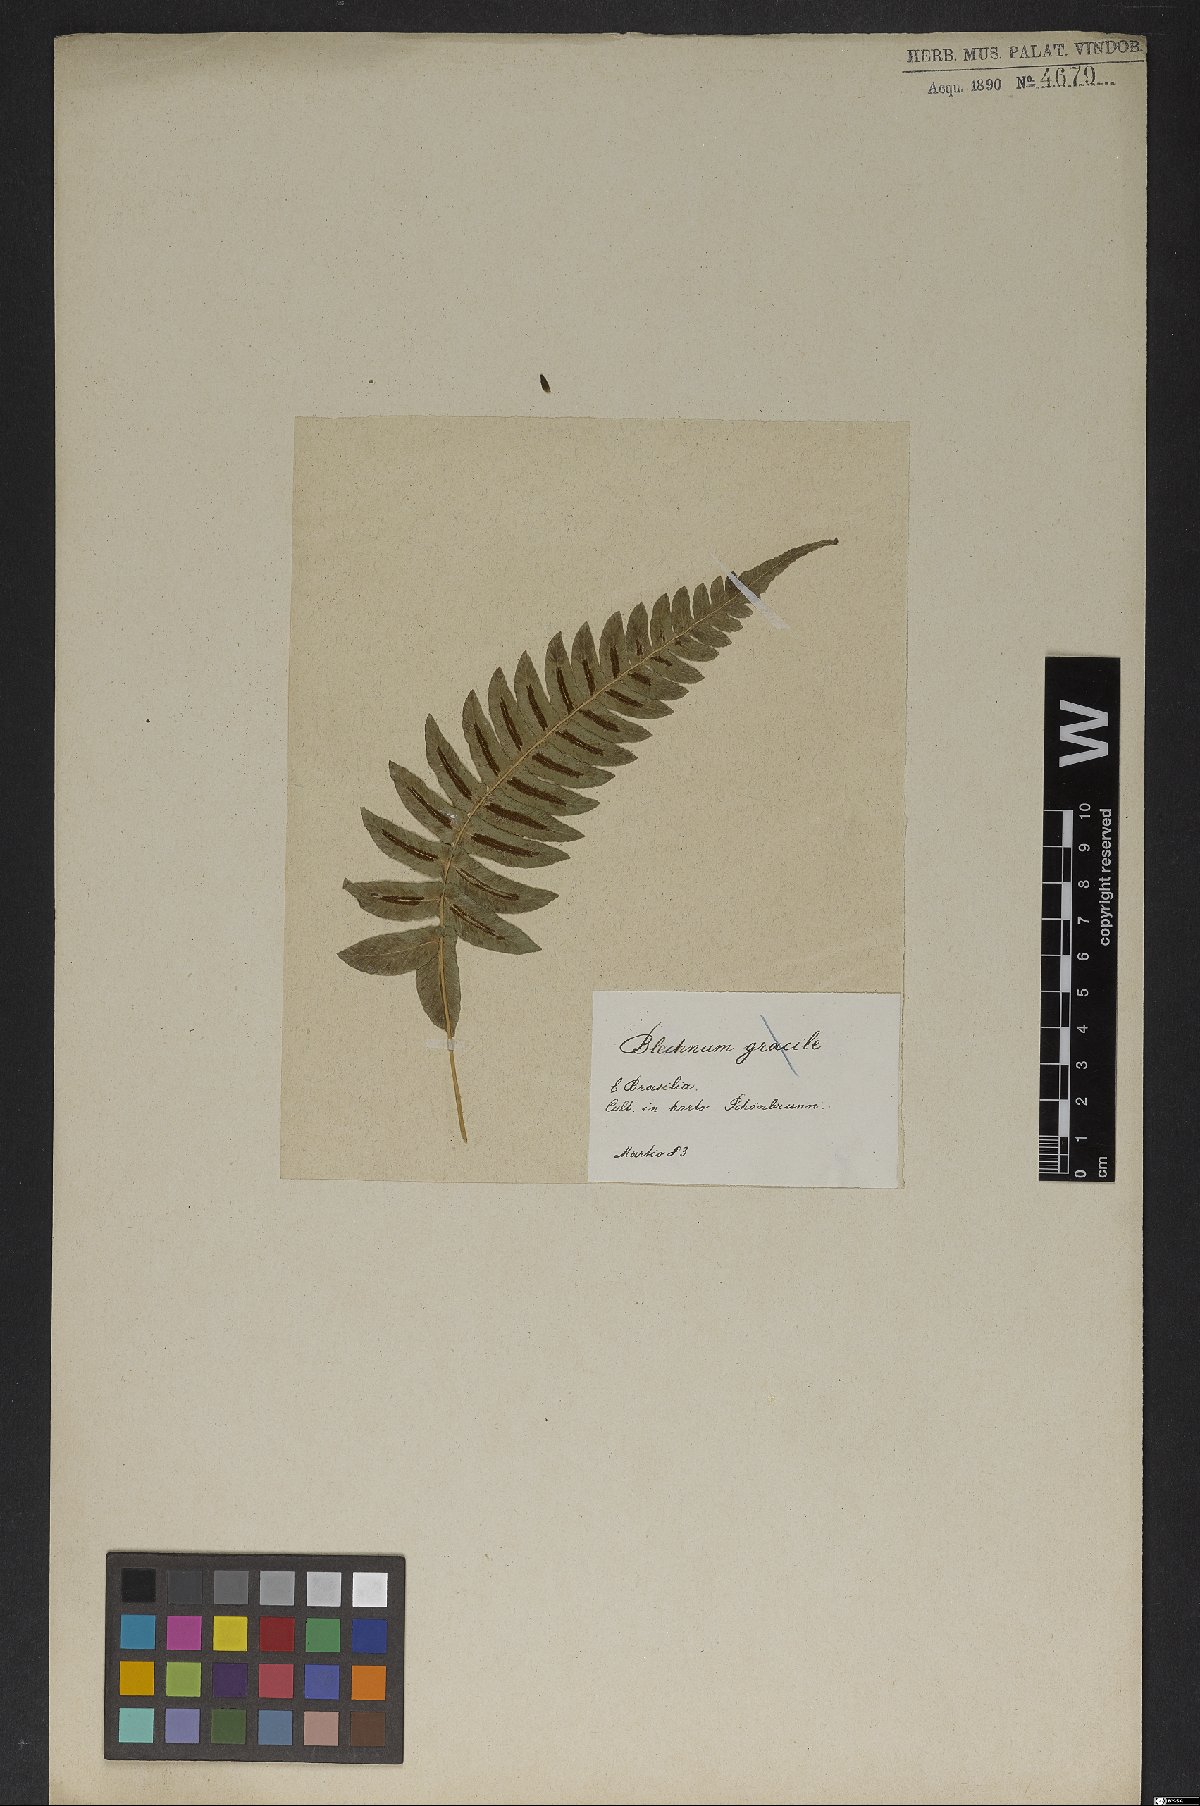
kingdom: Plantae
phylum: Tracheophyta
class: Polypodiopsida
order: Polypodiales
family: Blechnaceae
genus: Blechnum
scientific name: Blechnum
